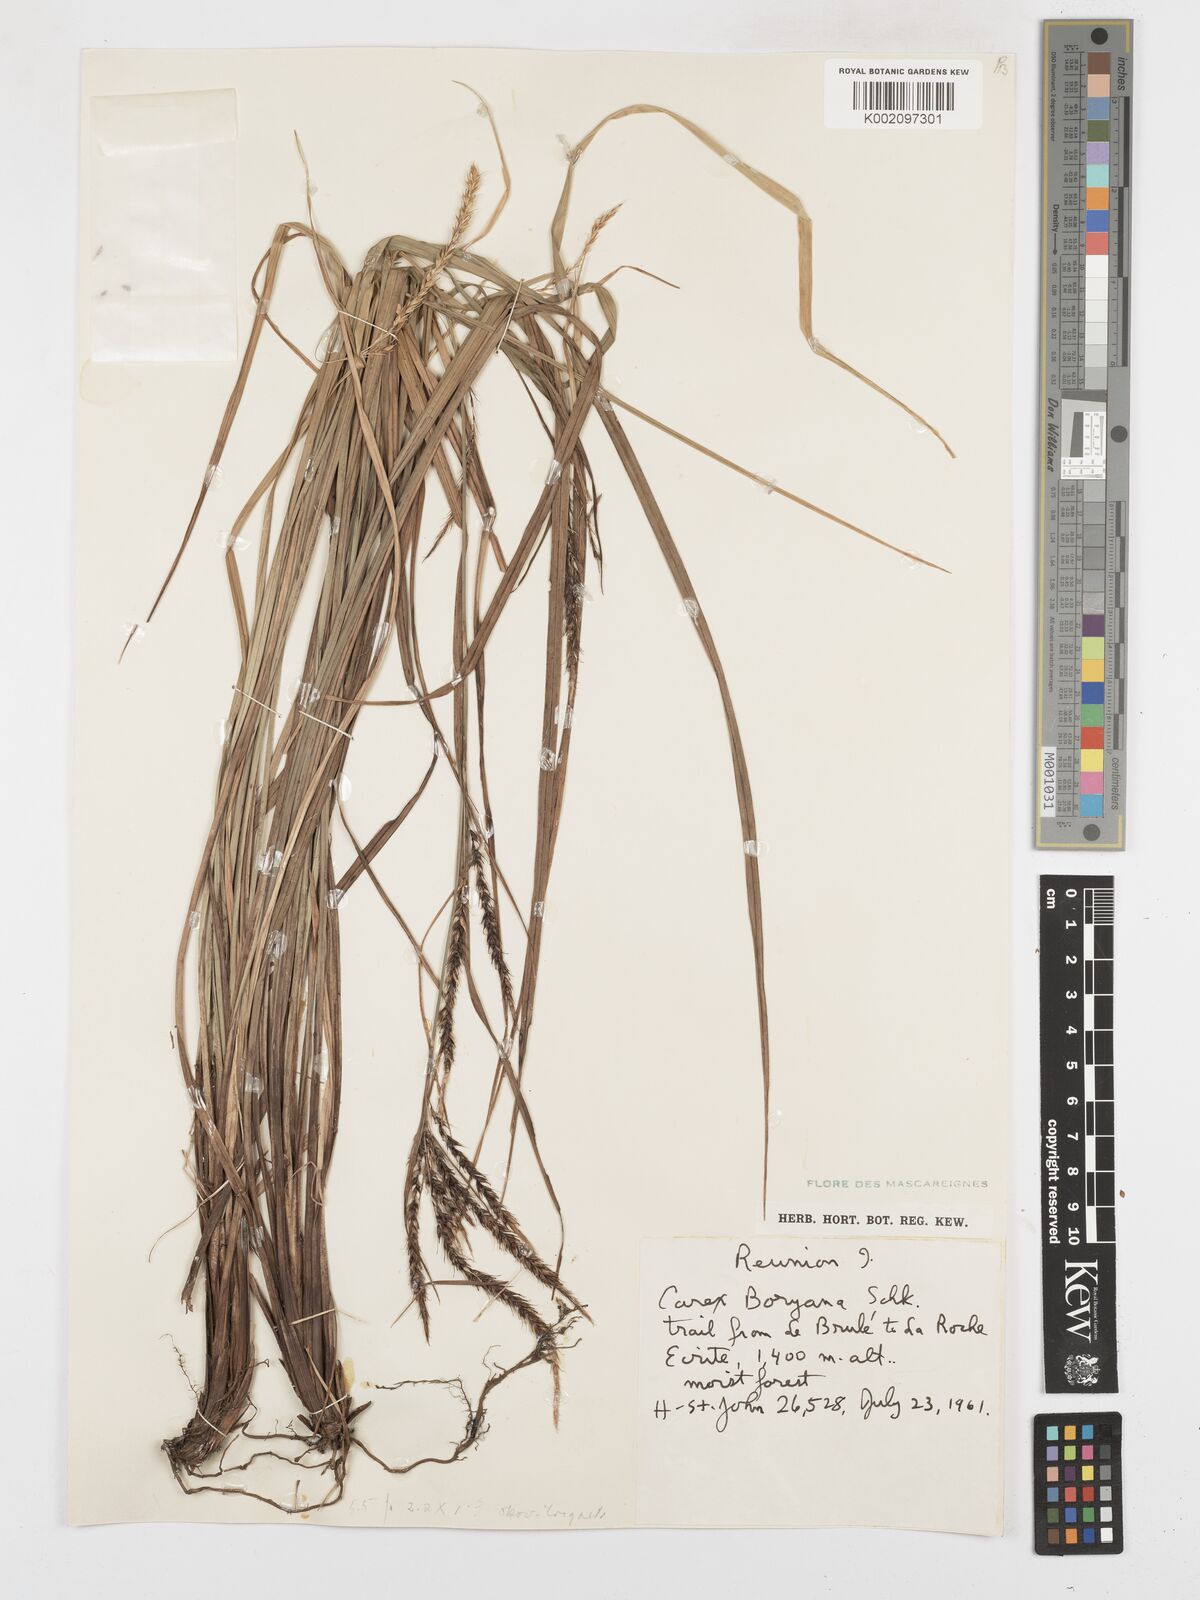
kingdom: Plantae
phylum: Tracheophyta
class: Liliopsida
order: Poales
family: Cyperaceae
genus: Carex
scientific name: Carex boryana
